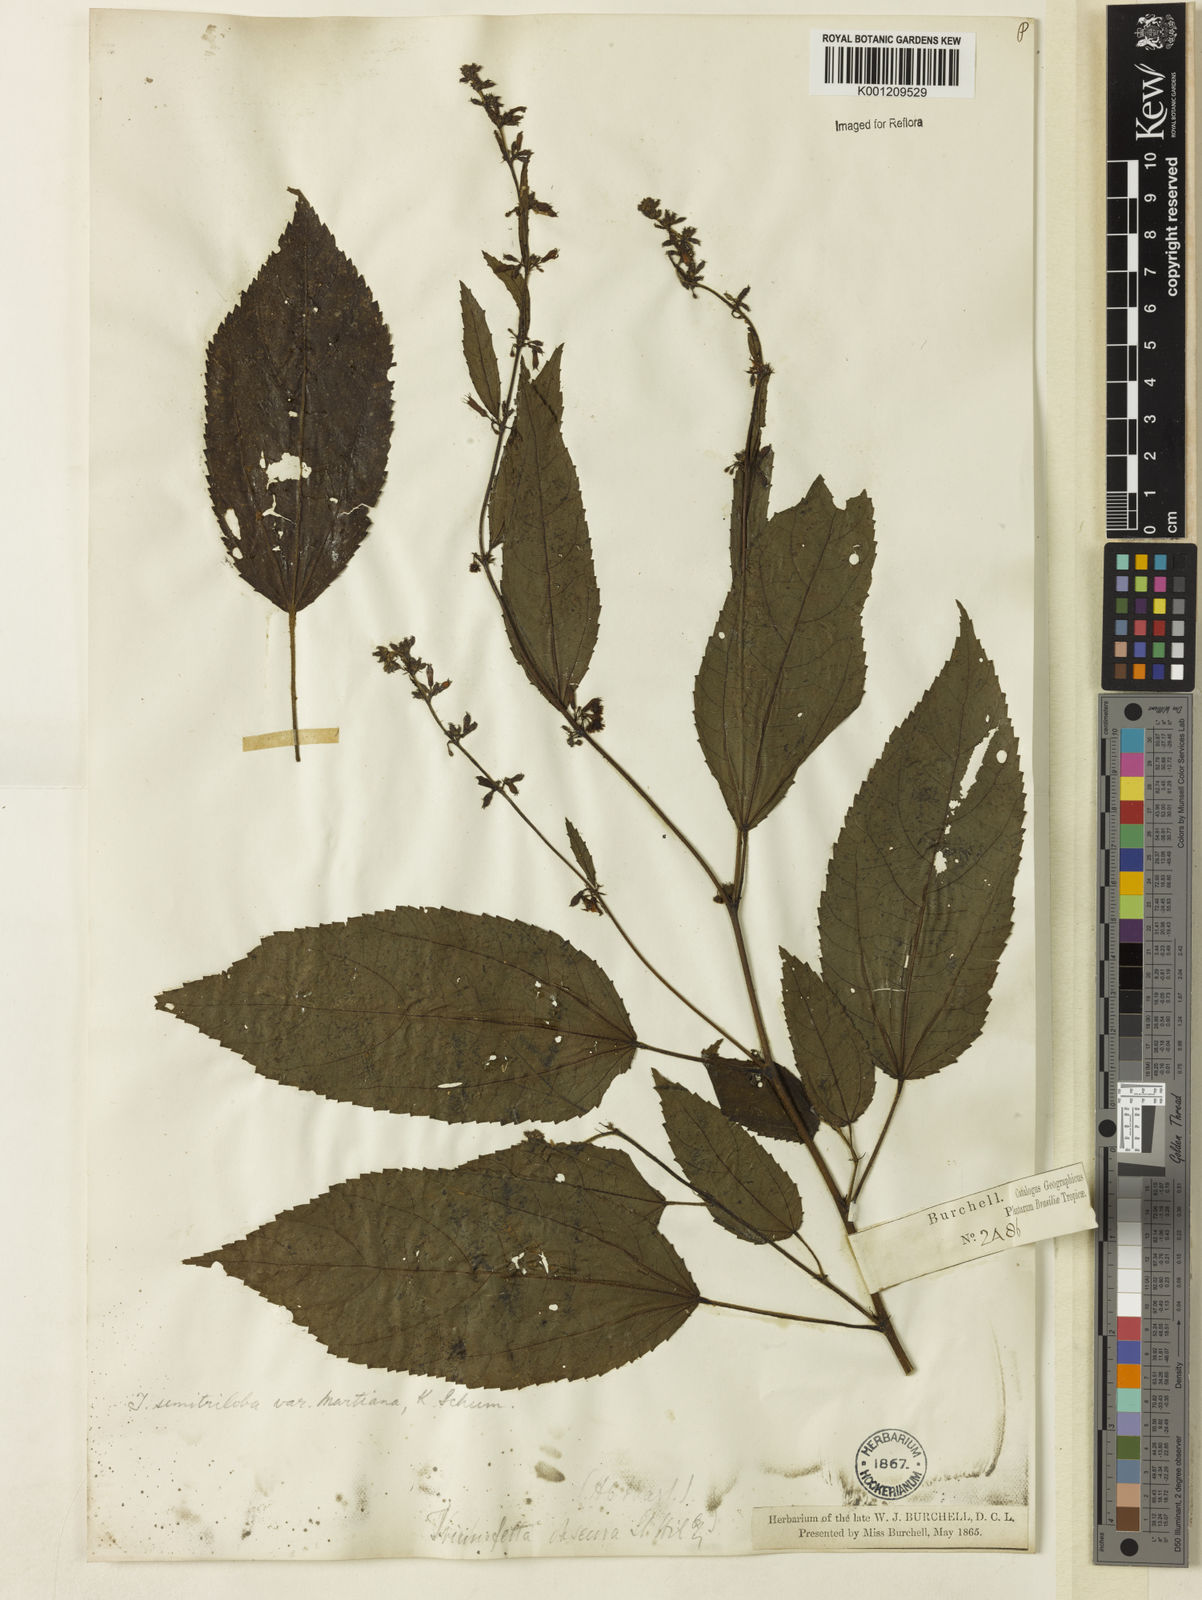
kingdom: Plantae
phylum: Tracheophyta
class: Magnoliopsida
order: Malvales
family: Malvaceae
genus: Triumfetta
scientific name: Triumfetta semitriloba
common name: Sacramento burbark
